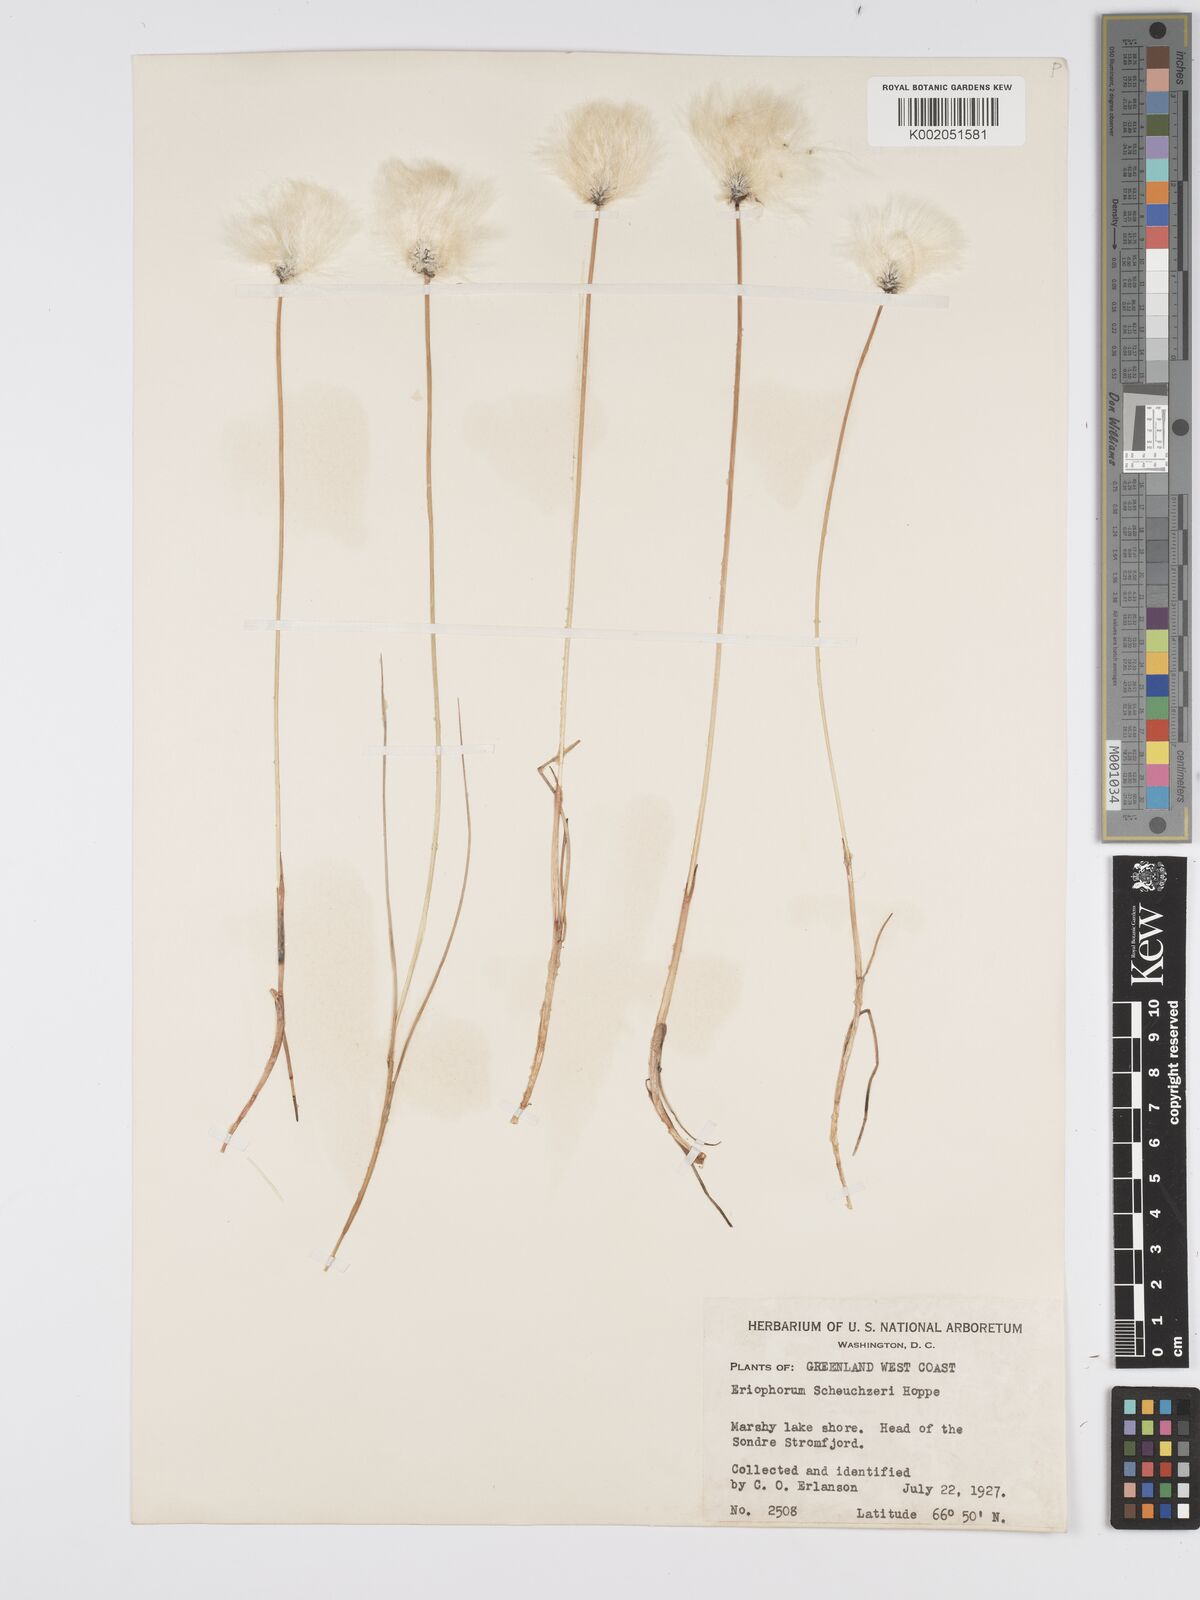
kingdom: Plantae
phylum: Tracheophyta
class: Liliopsida
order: Poales
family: Cyperaceae
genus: Eriophorum
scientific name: Eriophorum scheuchzeri
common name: Scheuchzer's cottongrass
